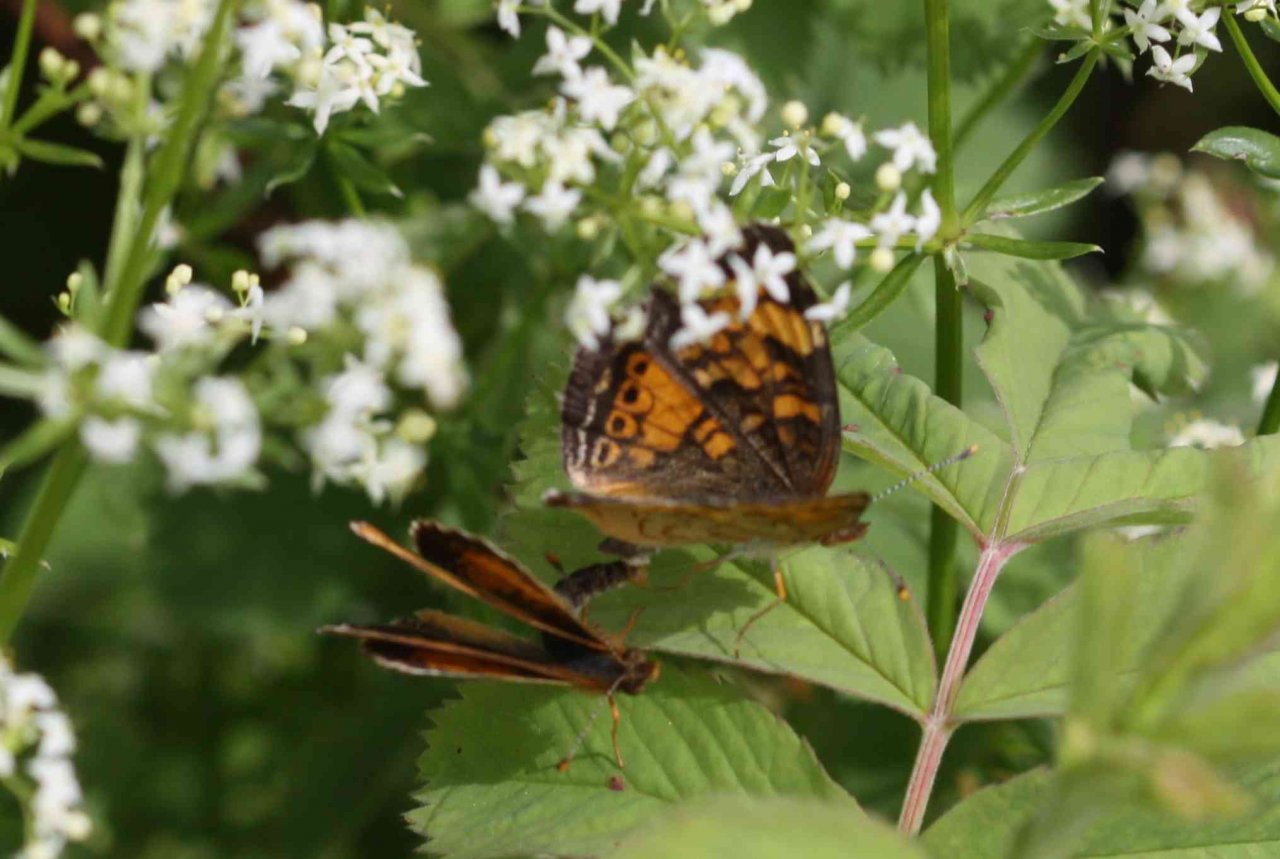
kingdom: Animalia
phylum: Arthropoda
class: Insecta
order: Lepidoptera
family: Nymphalidae
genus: Phyciodes
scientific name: Phyciodes tharos
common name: Northern Crescent
